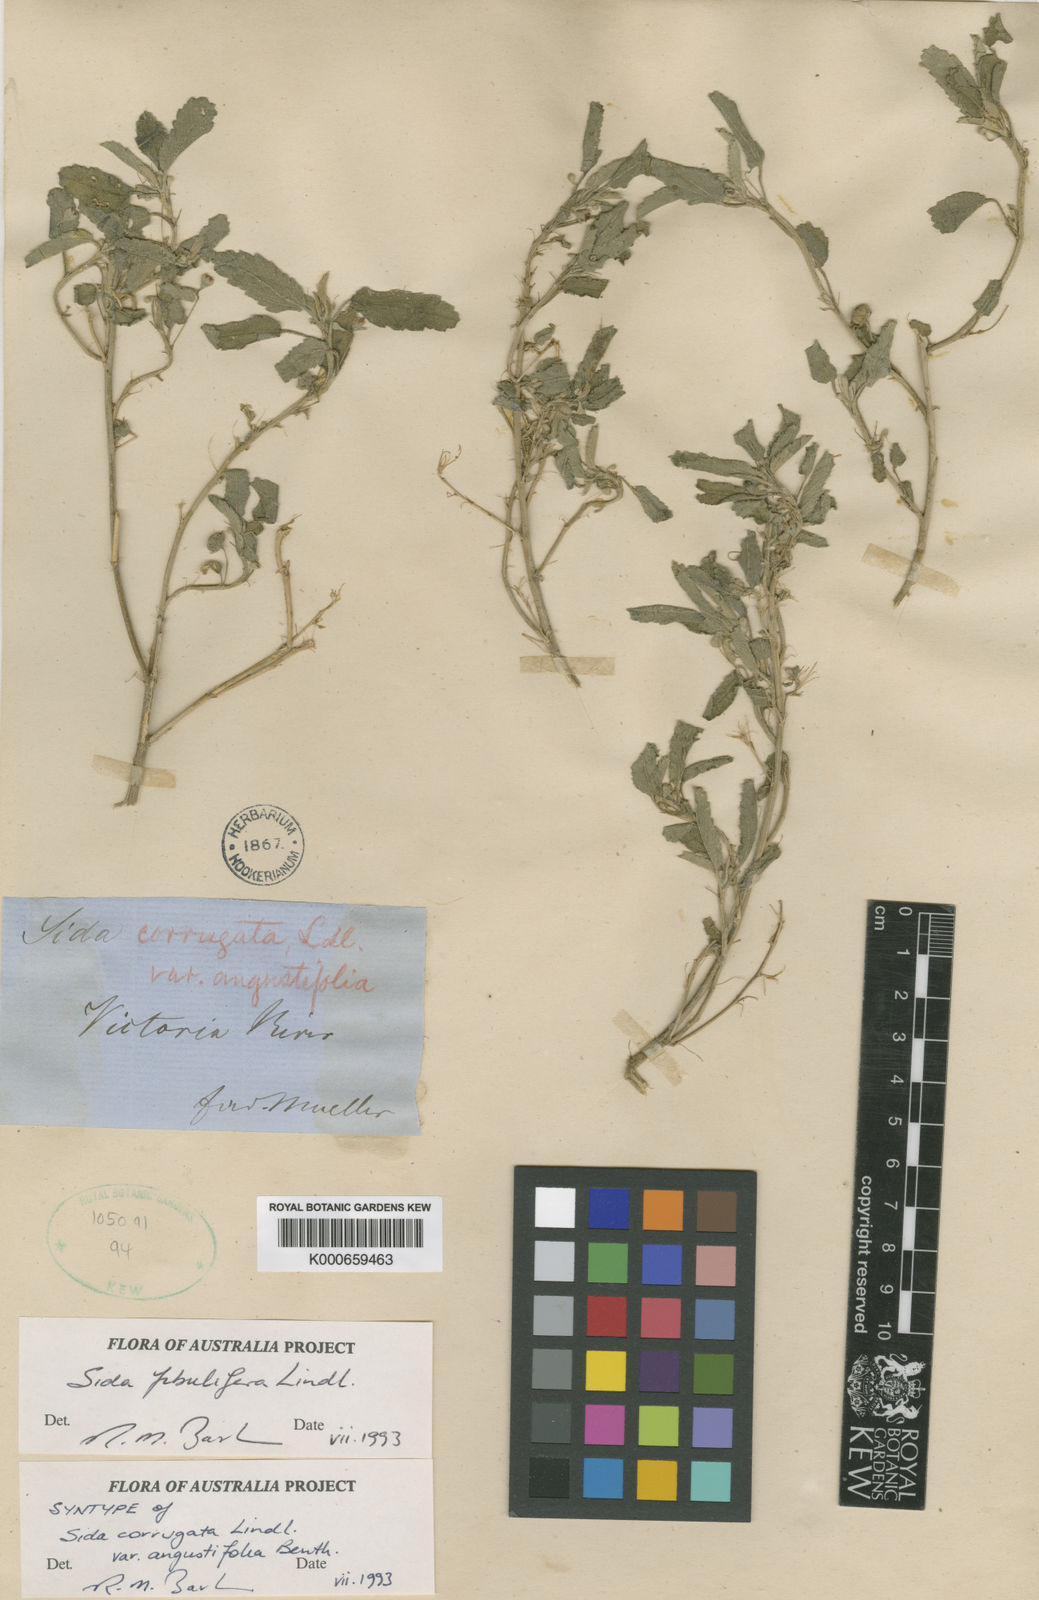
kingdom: Plantae
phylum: Tracheophyta
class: Magnoliopsida
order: Malvales
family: Malvaceae
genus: Sida
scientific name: Sida fibulifera
